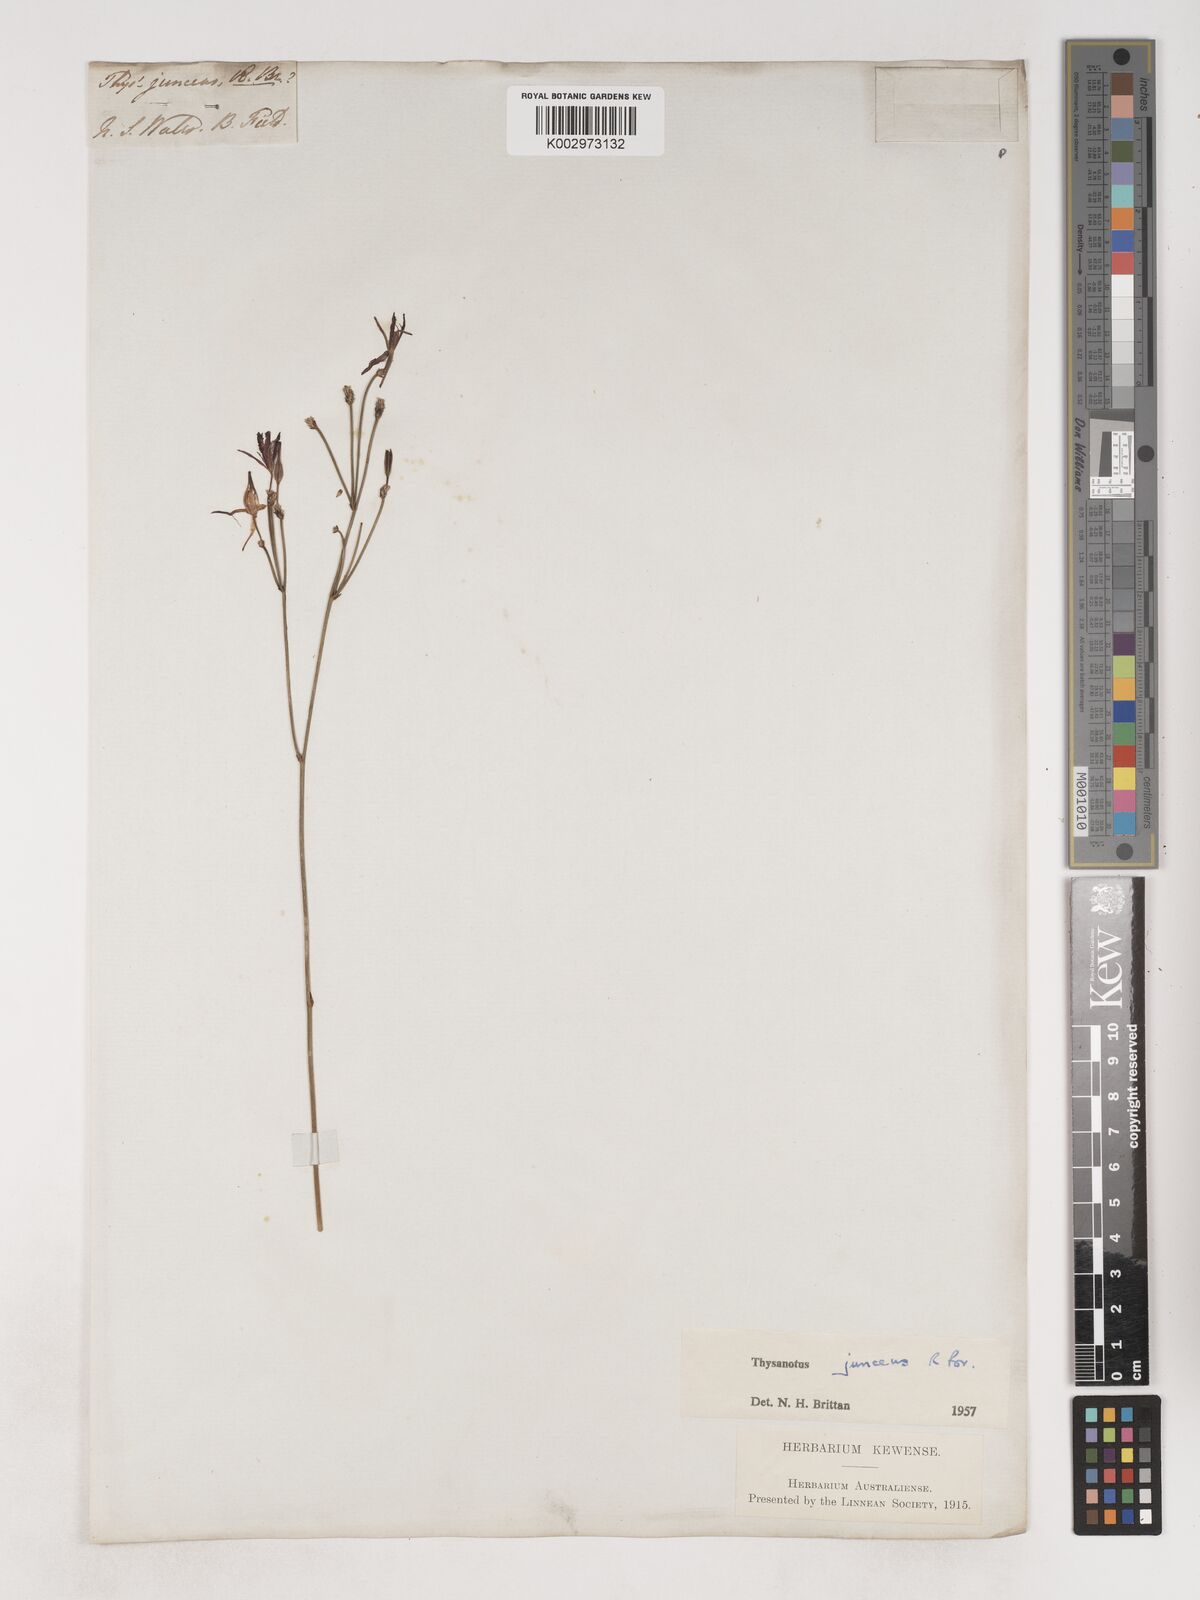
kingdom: Plantae
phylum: Tracheophyta
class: Liliopsida
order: Asparagales
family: Asparagaceae
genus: Thysanotus
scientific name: Thysanotus juncifolius
